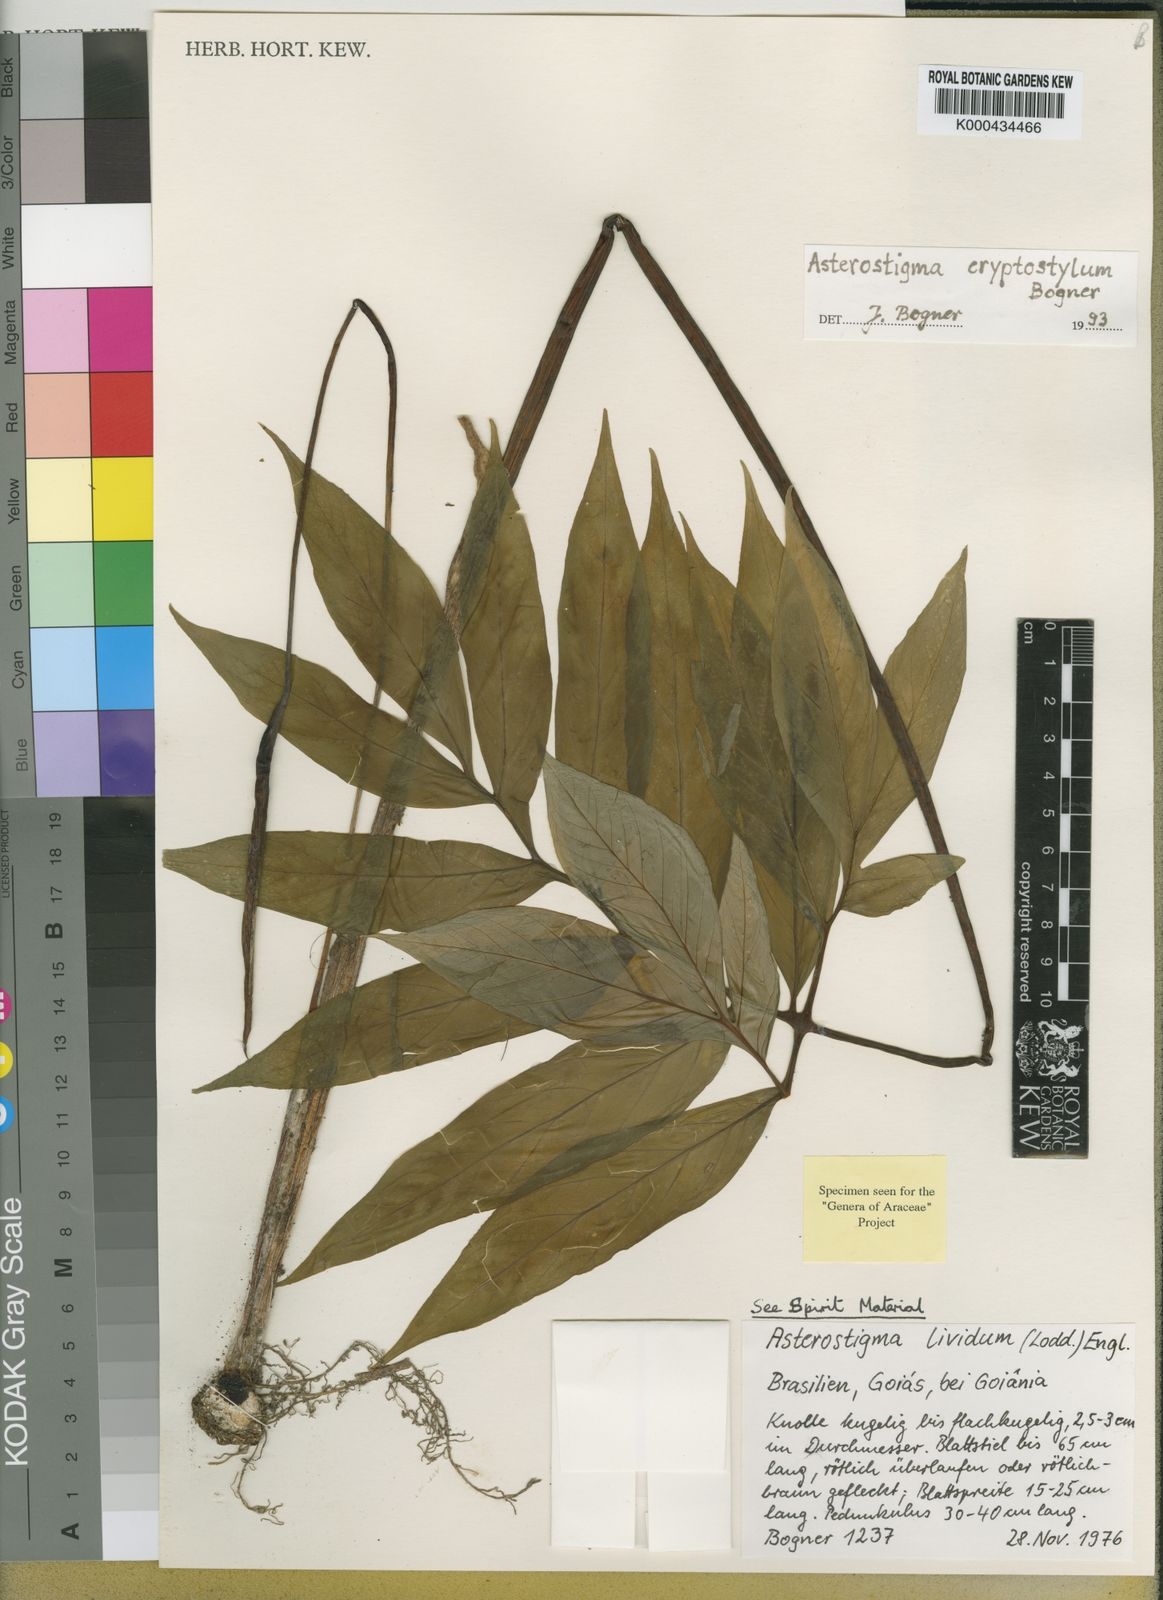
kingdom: Plantae
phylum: Tracheophyta
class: Liliopsida
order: Alismatales
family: Araceae
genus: Asterostigma
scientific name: Asterostigma cryptostylum
